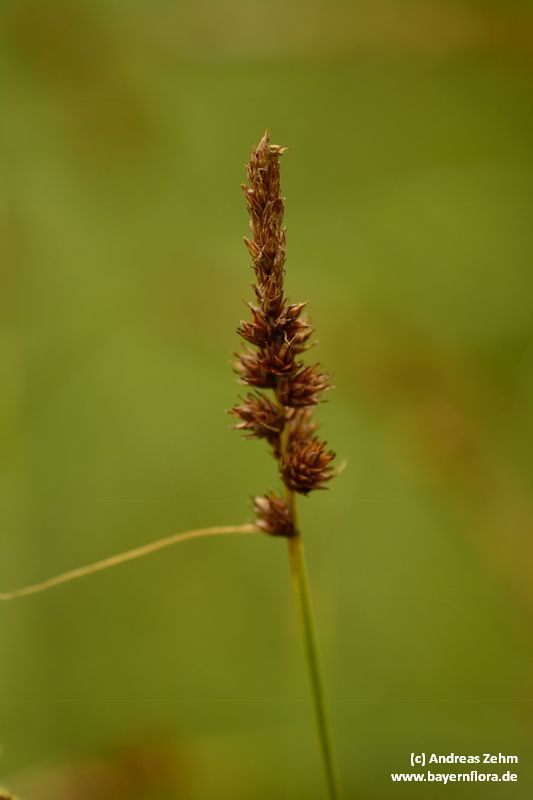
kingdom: Plantae
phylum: Tracheophyta
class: Liliopsida
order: Poales
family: Cyperaceae
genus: Carex
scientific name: Carex disticha
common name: Brown sedge
